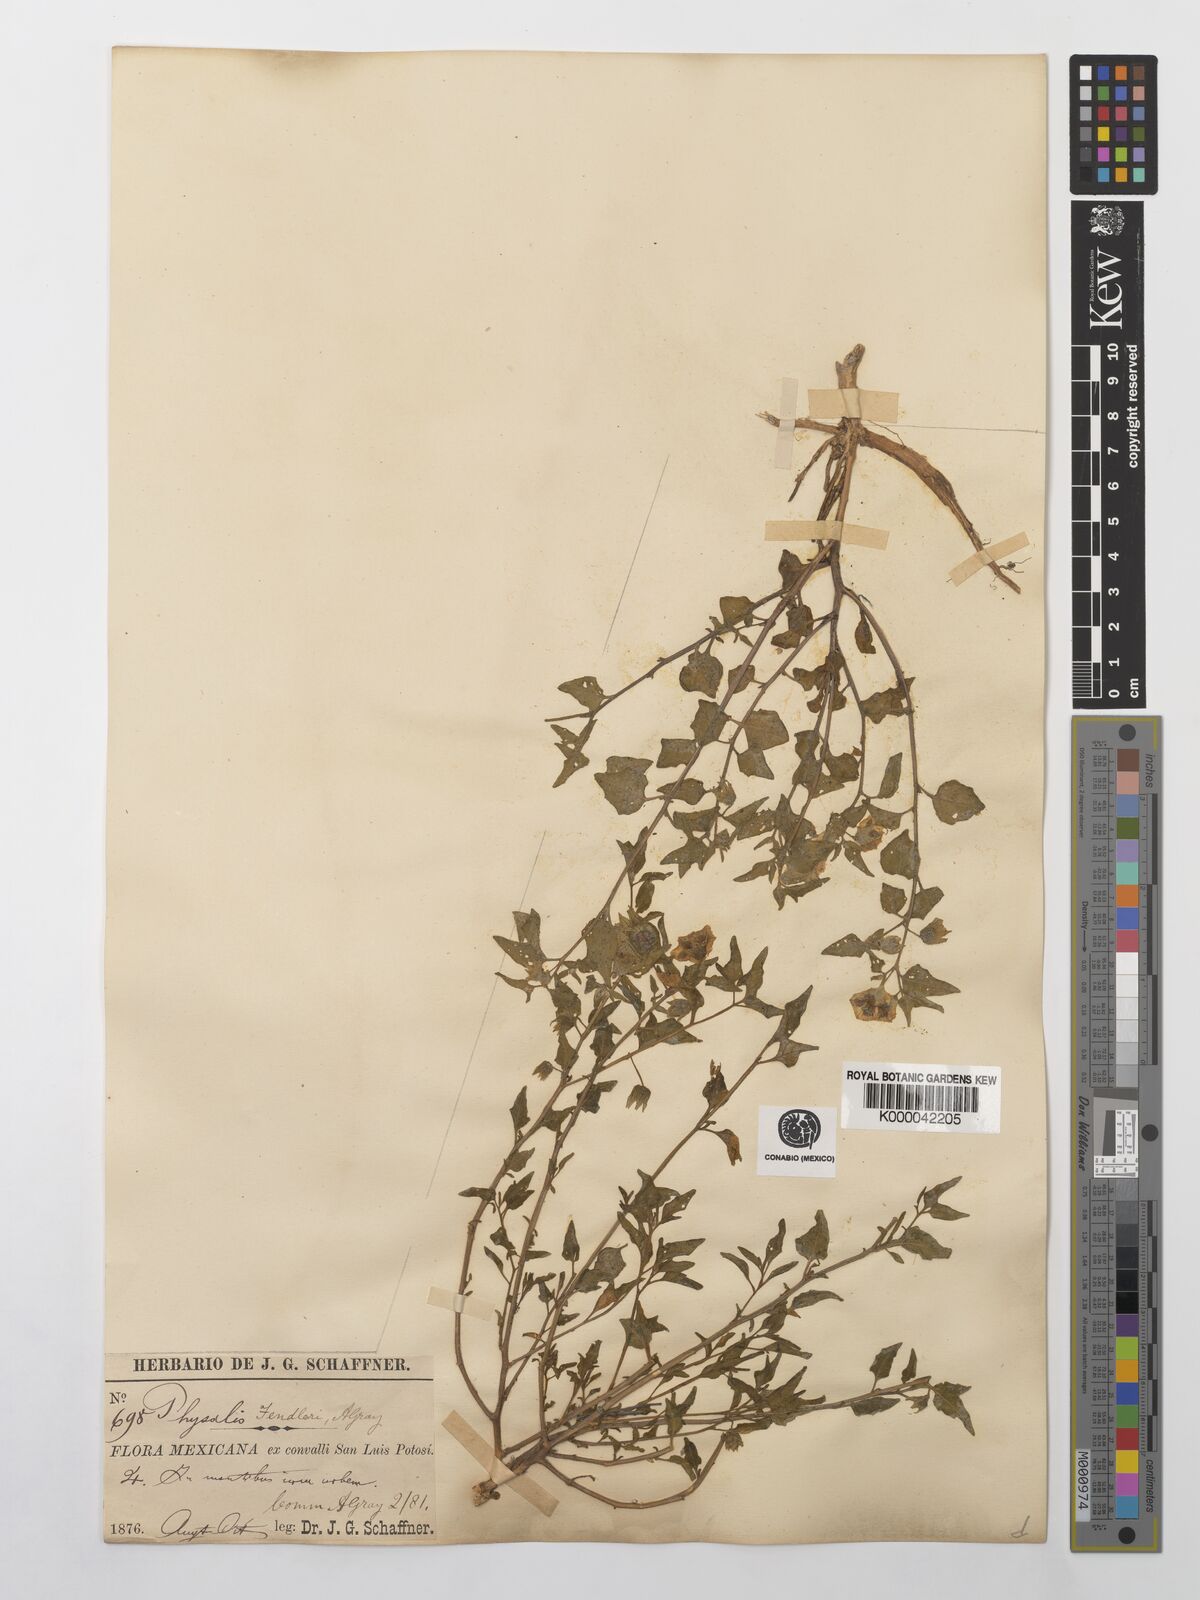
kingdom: Plantae
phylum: Tracheophyta
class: Magnoliopsida
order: Solanales
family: Solanaceae
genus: Physalis
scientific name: Physalis fendleri
